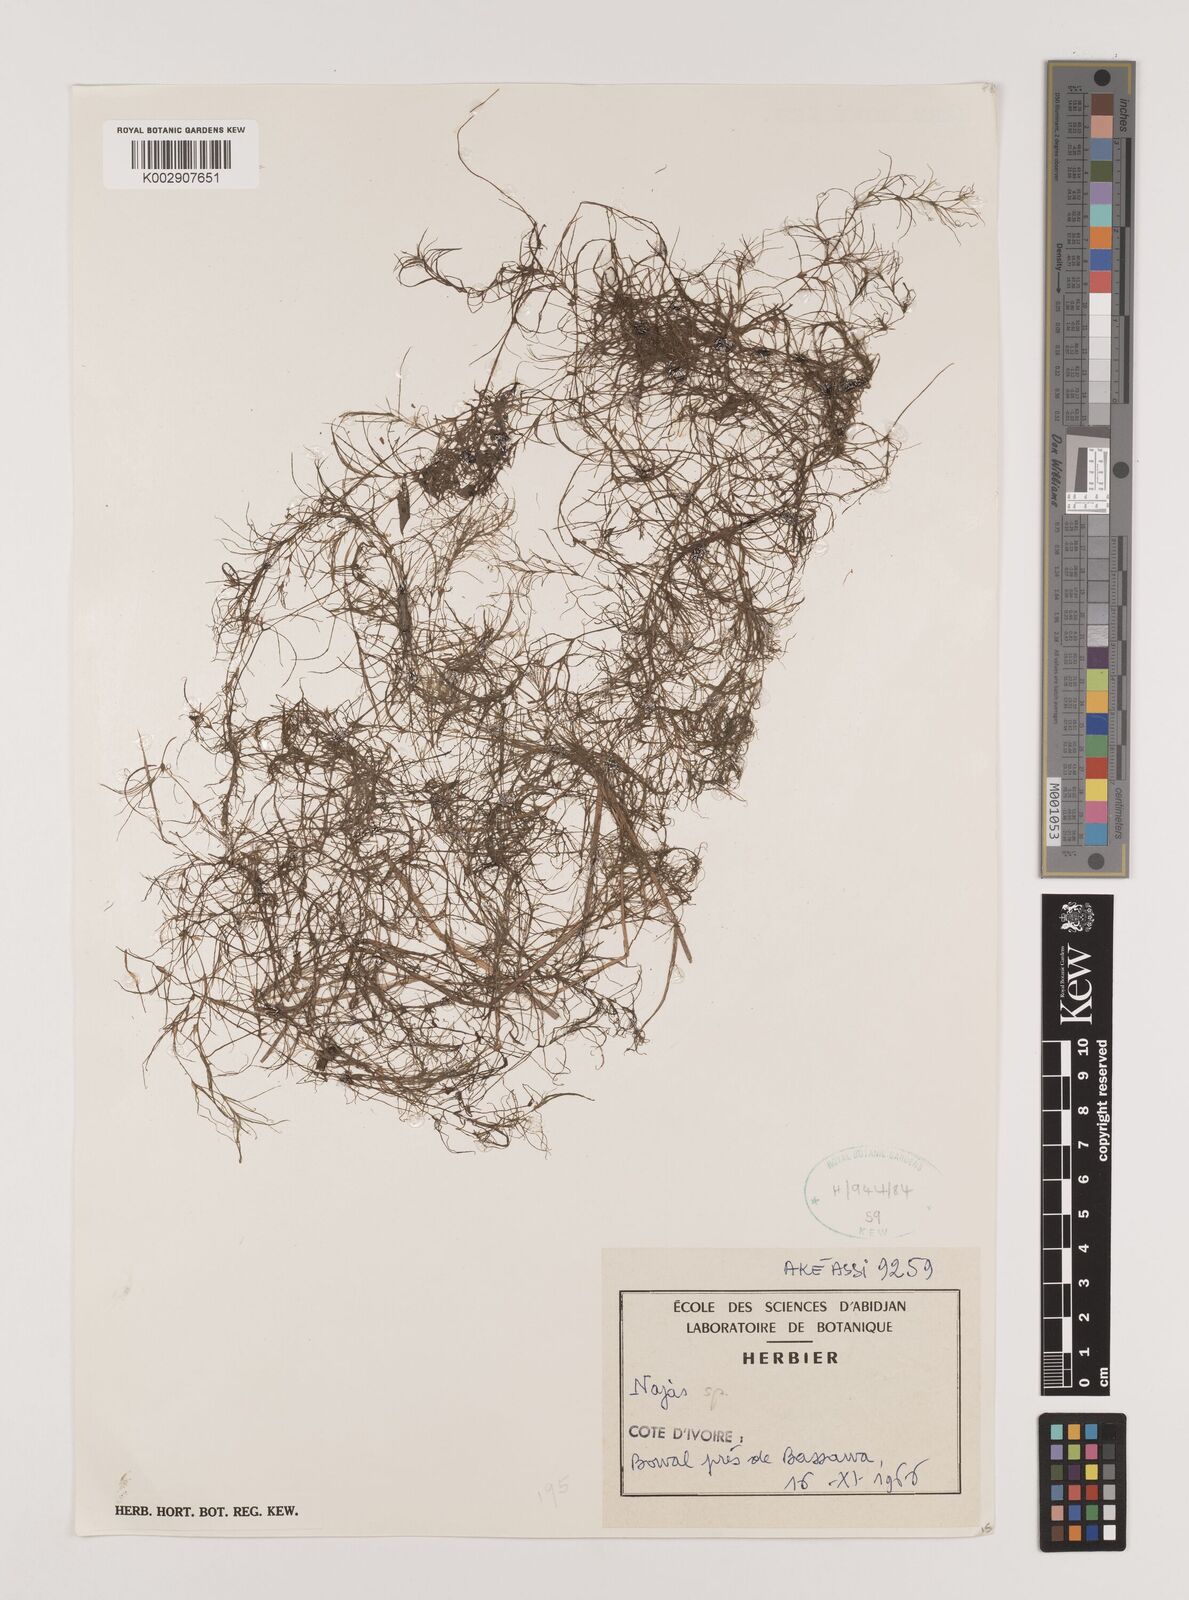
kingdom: Plantae
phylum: Tracheophyta
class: Liliopsida
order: Alismatales
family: Hydrocharitaceae
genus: Najas
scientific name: Najas
